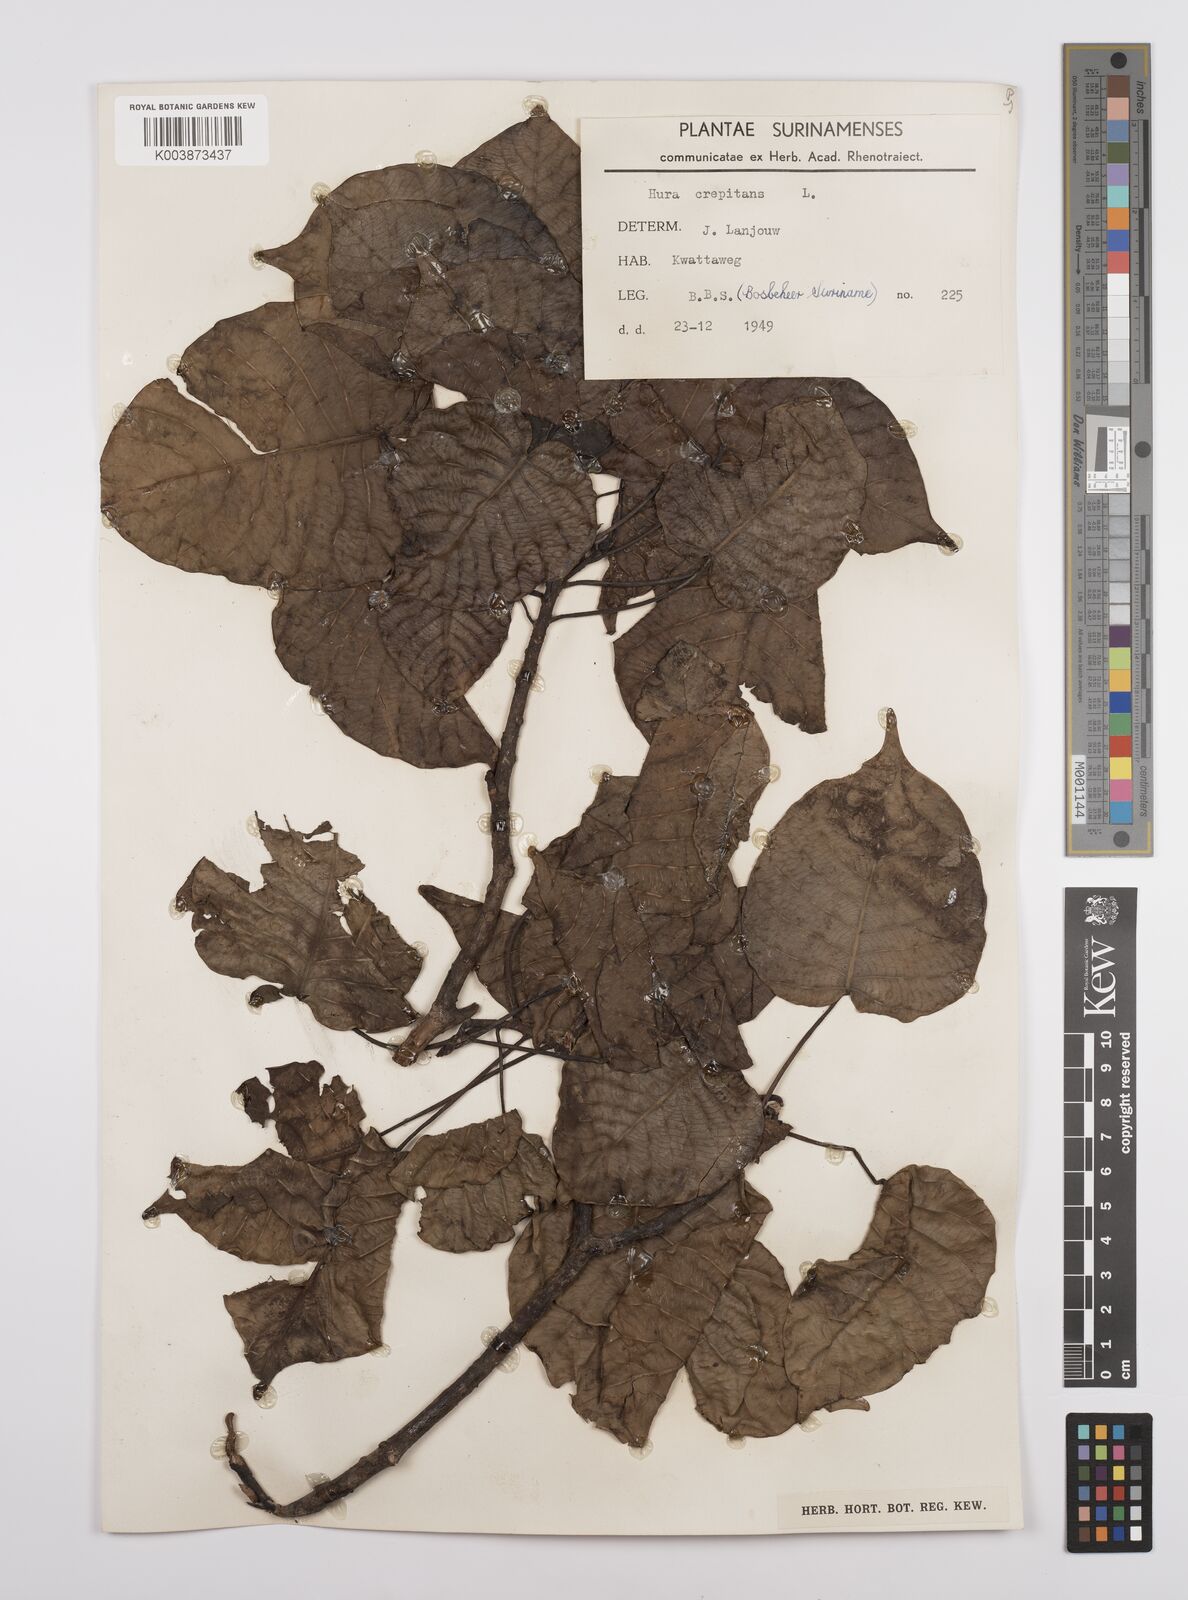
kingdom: Plantae
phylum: Tracheophyta
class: Magnoliopsida
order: Malpighiales
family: Euphorbiaceae
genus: Hura
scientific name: Hura crepitans
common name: Sandboxtree
